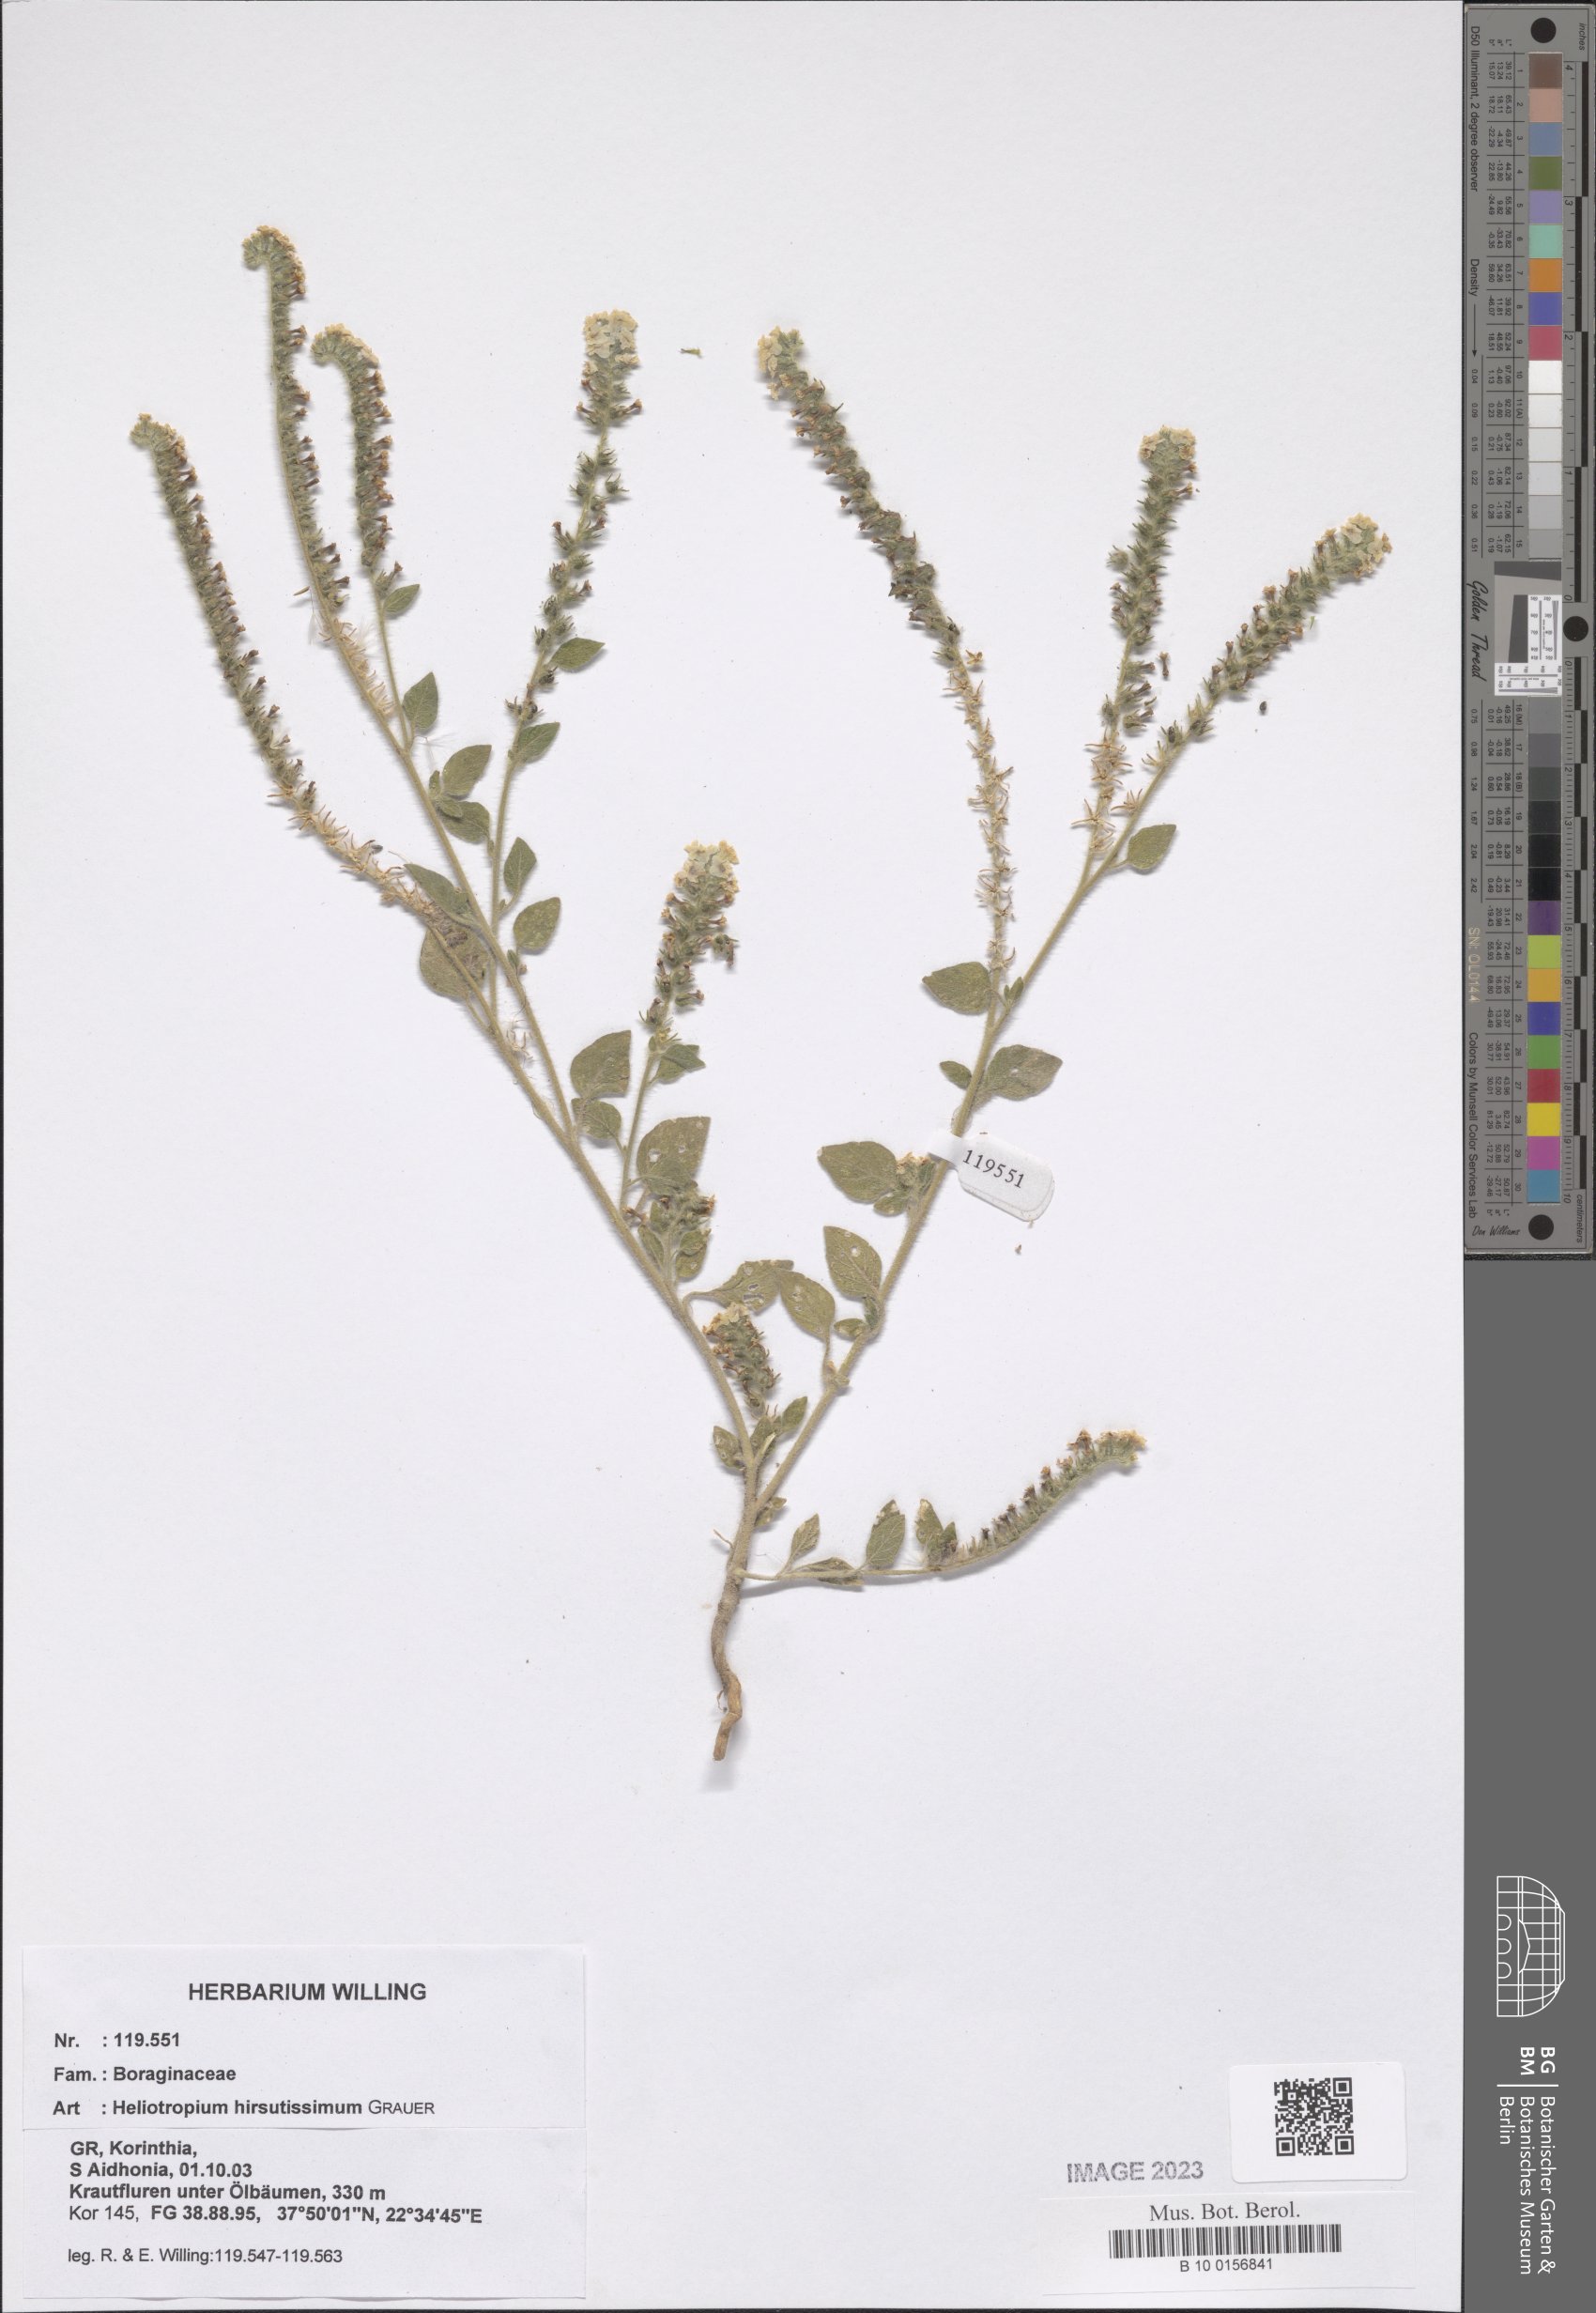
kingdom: Plantae
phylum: Tracheophyta
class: Magnoliopsida
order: Boraginales
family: Heliotropiaceae
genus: Heliotropium
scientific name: Heliotropium hirsutissimum
